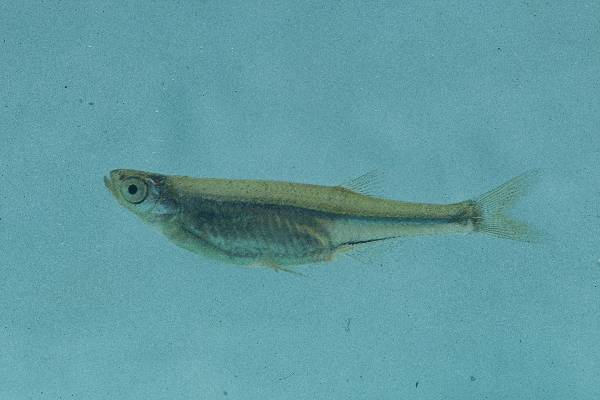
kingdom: Animalia
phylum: Chordata
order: Cypriniformes
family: Cyprinidae
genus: Engraulicypris
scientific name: Engraulicypris brevianalis
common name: River sardine
